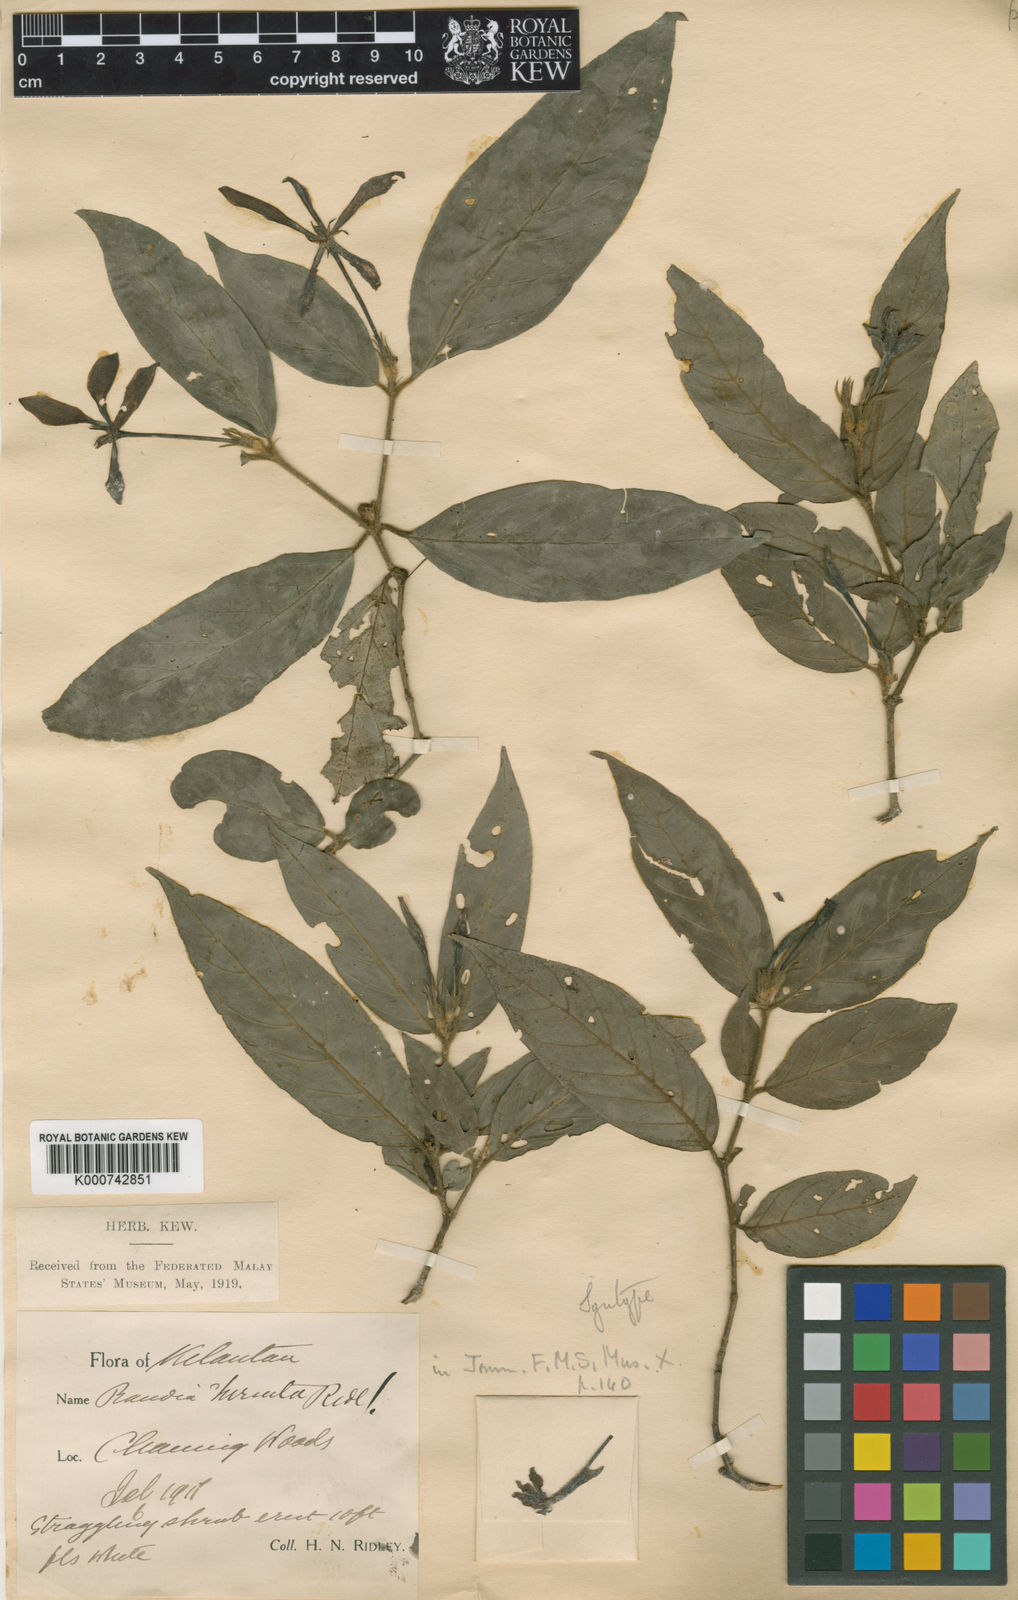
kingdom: Plantae
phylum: Tracheophyta
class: Magnoliopsida
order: Gentianales
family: Rubiaceae
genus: Benkara
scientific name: Benkara armigera
